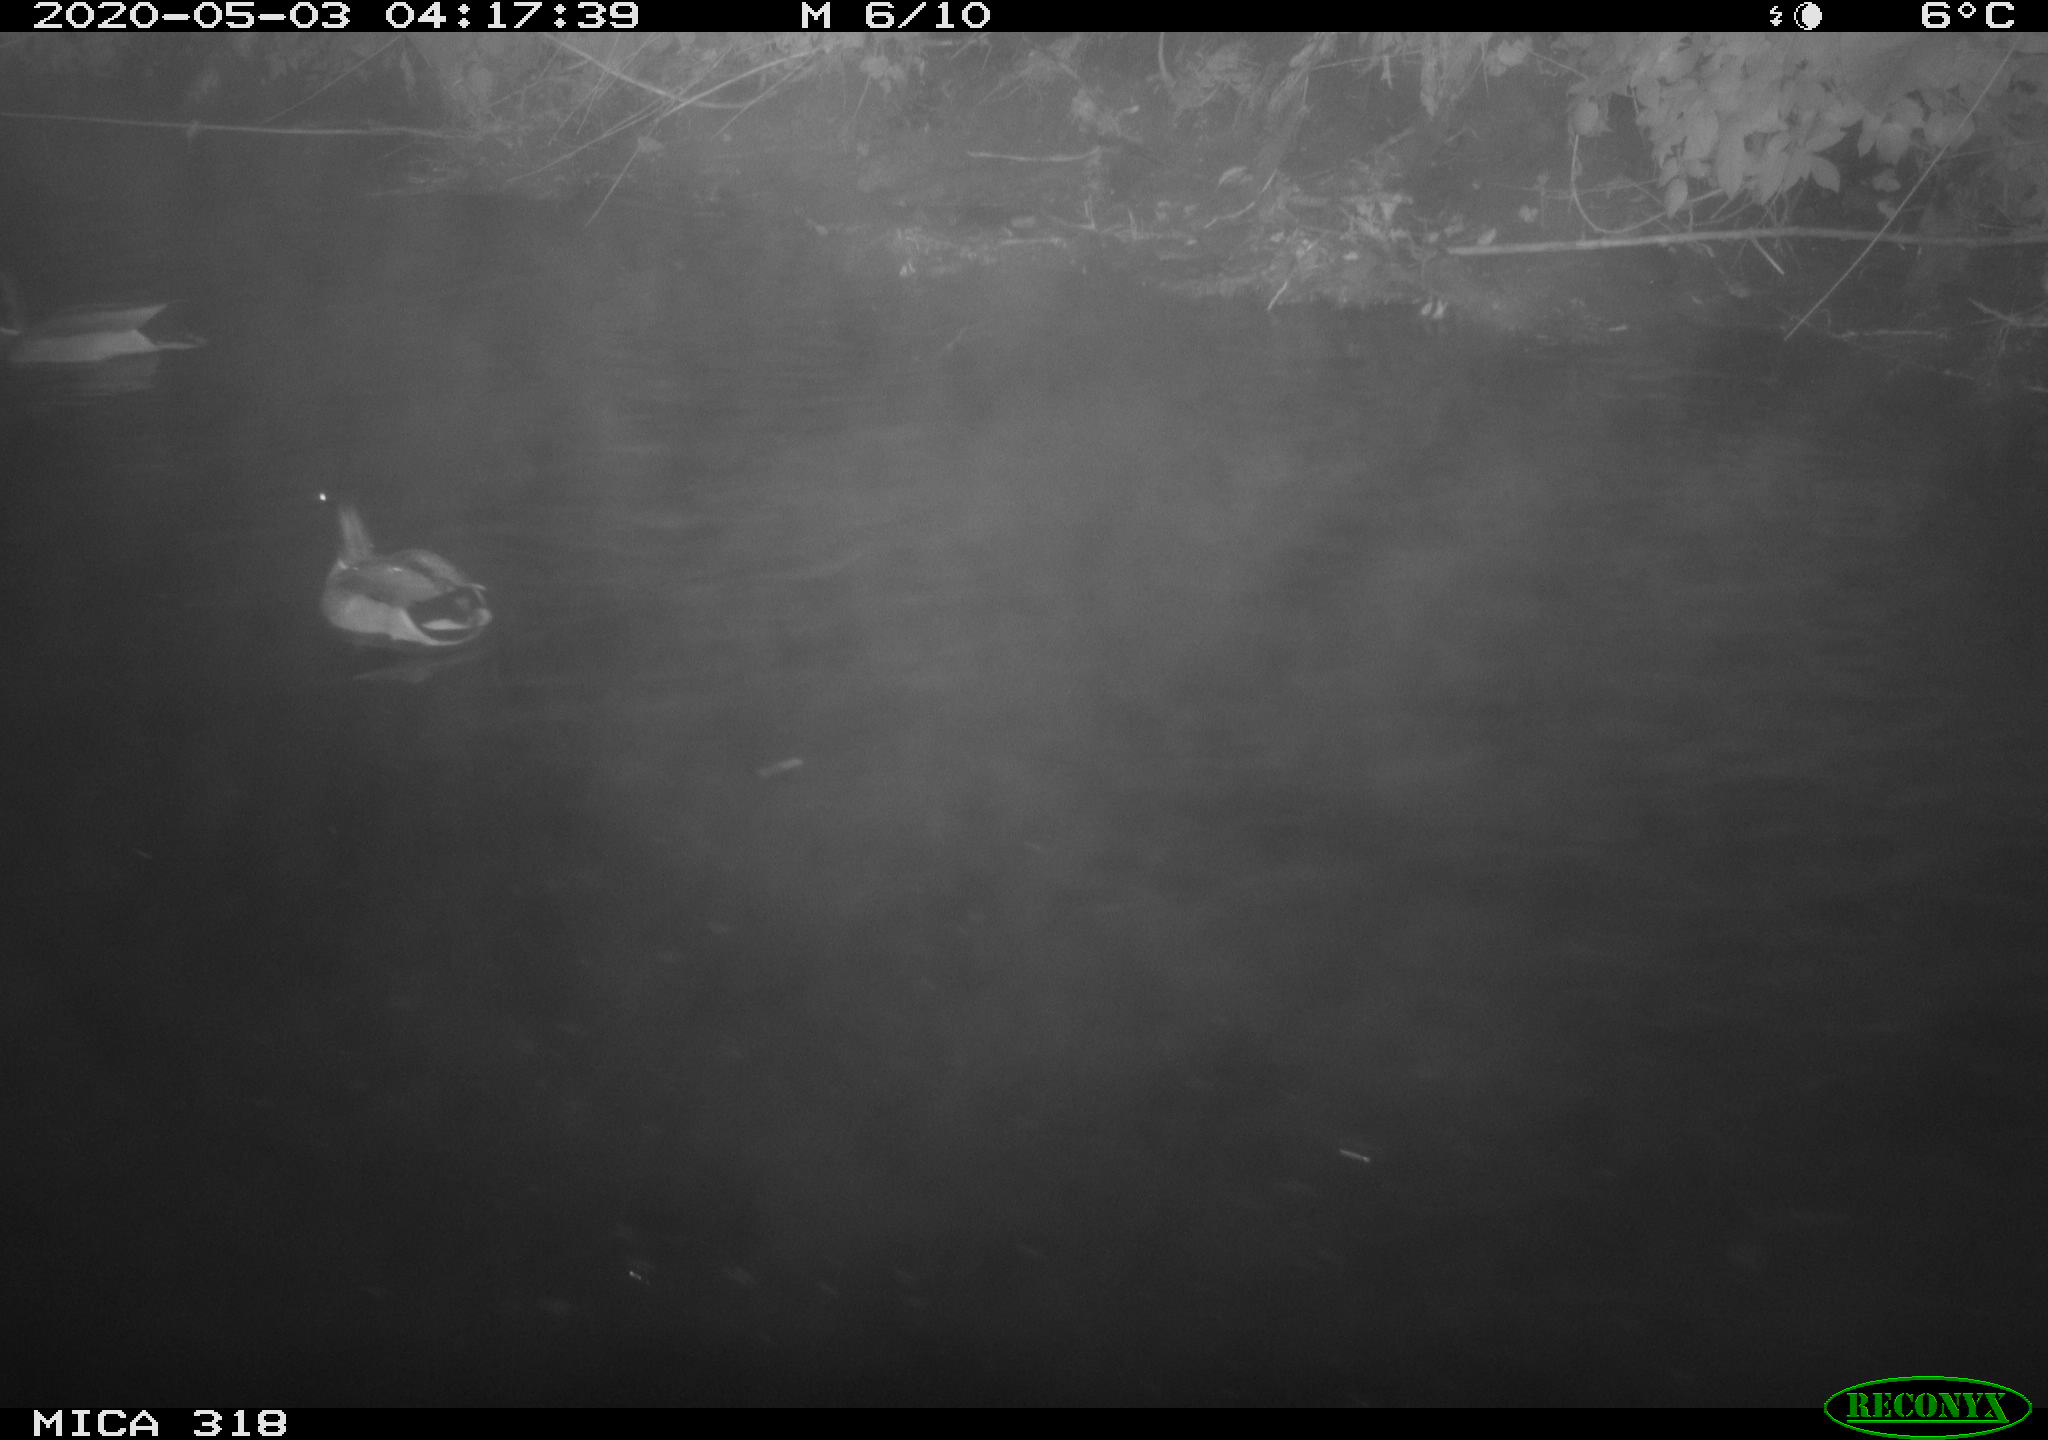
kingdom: Animalia
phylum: Chordata
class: Aves
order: Anseriformes
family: Anatidae
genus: Anas
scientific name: Anas platyrhynchos
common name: Mallard
